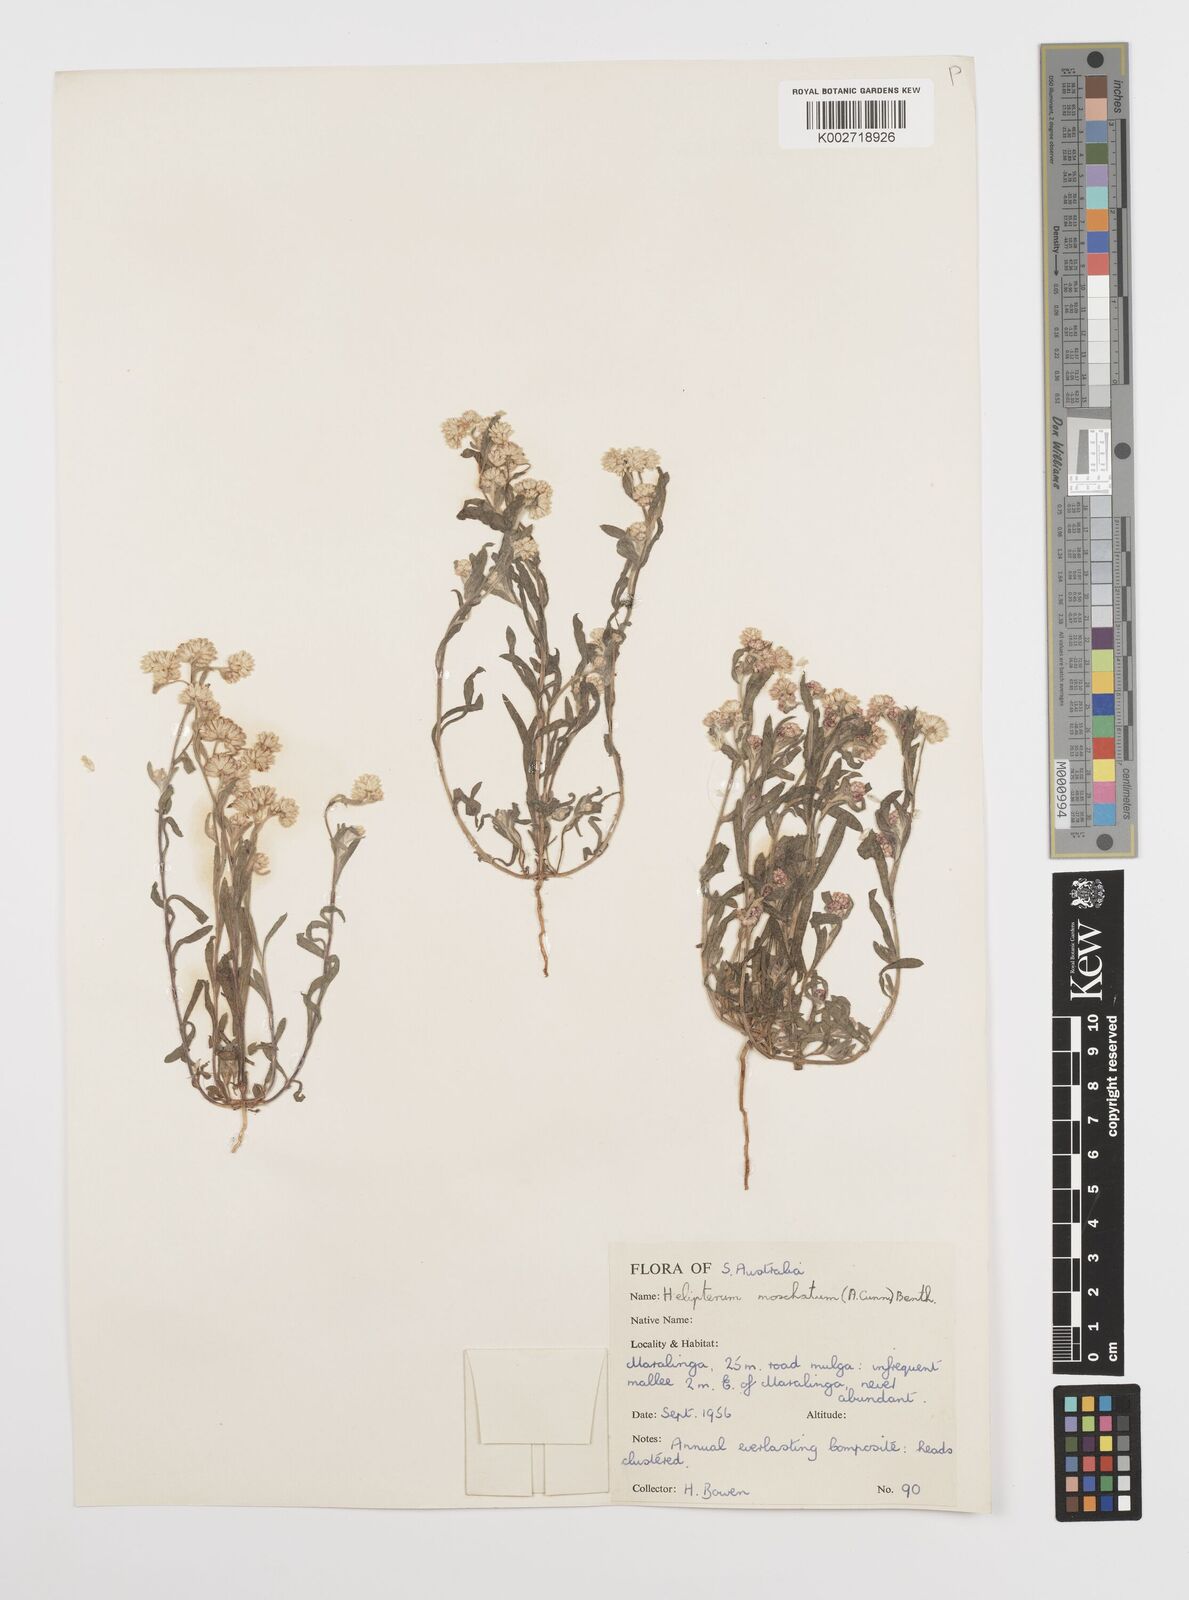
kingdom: Plantae
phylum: Tracheophyta
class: Magnoliopsida
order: Asterales
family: Asteraceae
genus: Rhodanthe
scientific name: Rhodanthe moschata
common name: Musk sunray
